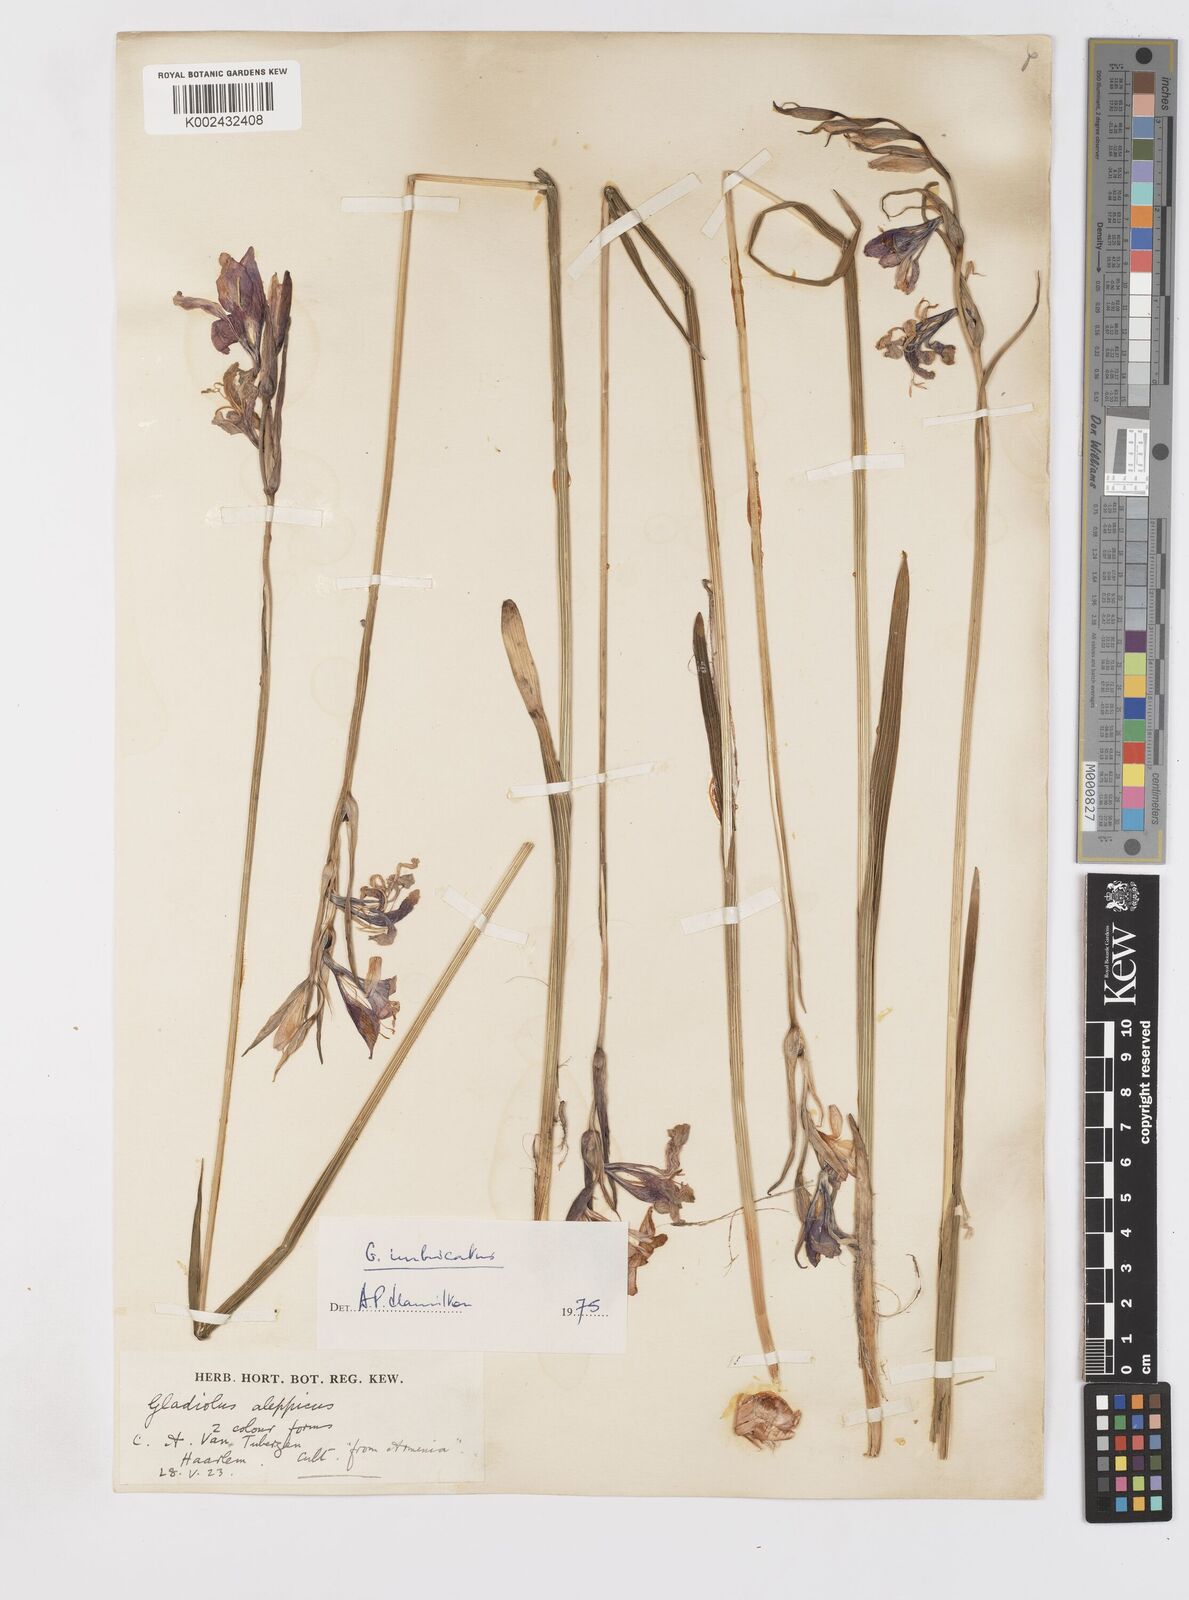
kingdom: Plantae
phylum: Tracheophyta
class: Liliopsida
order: Asparagales
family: Iridaceae
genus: Gladiolus
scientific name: Gladiolus kotschyanus
